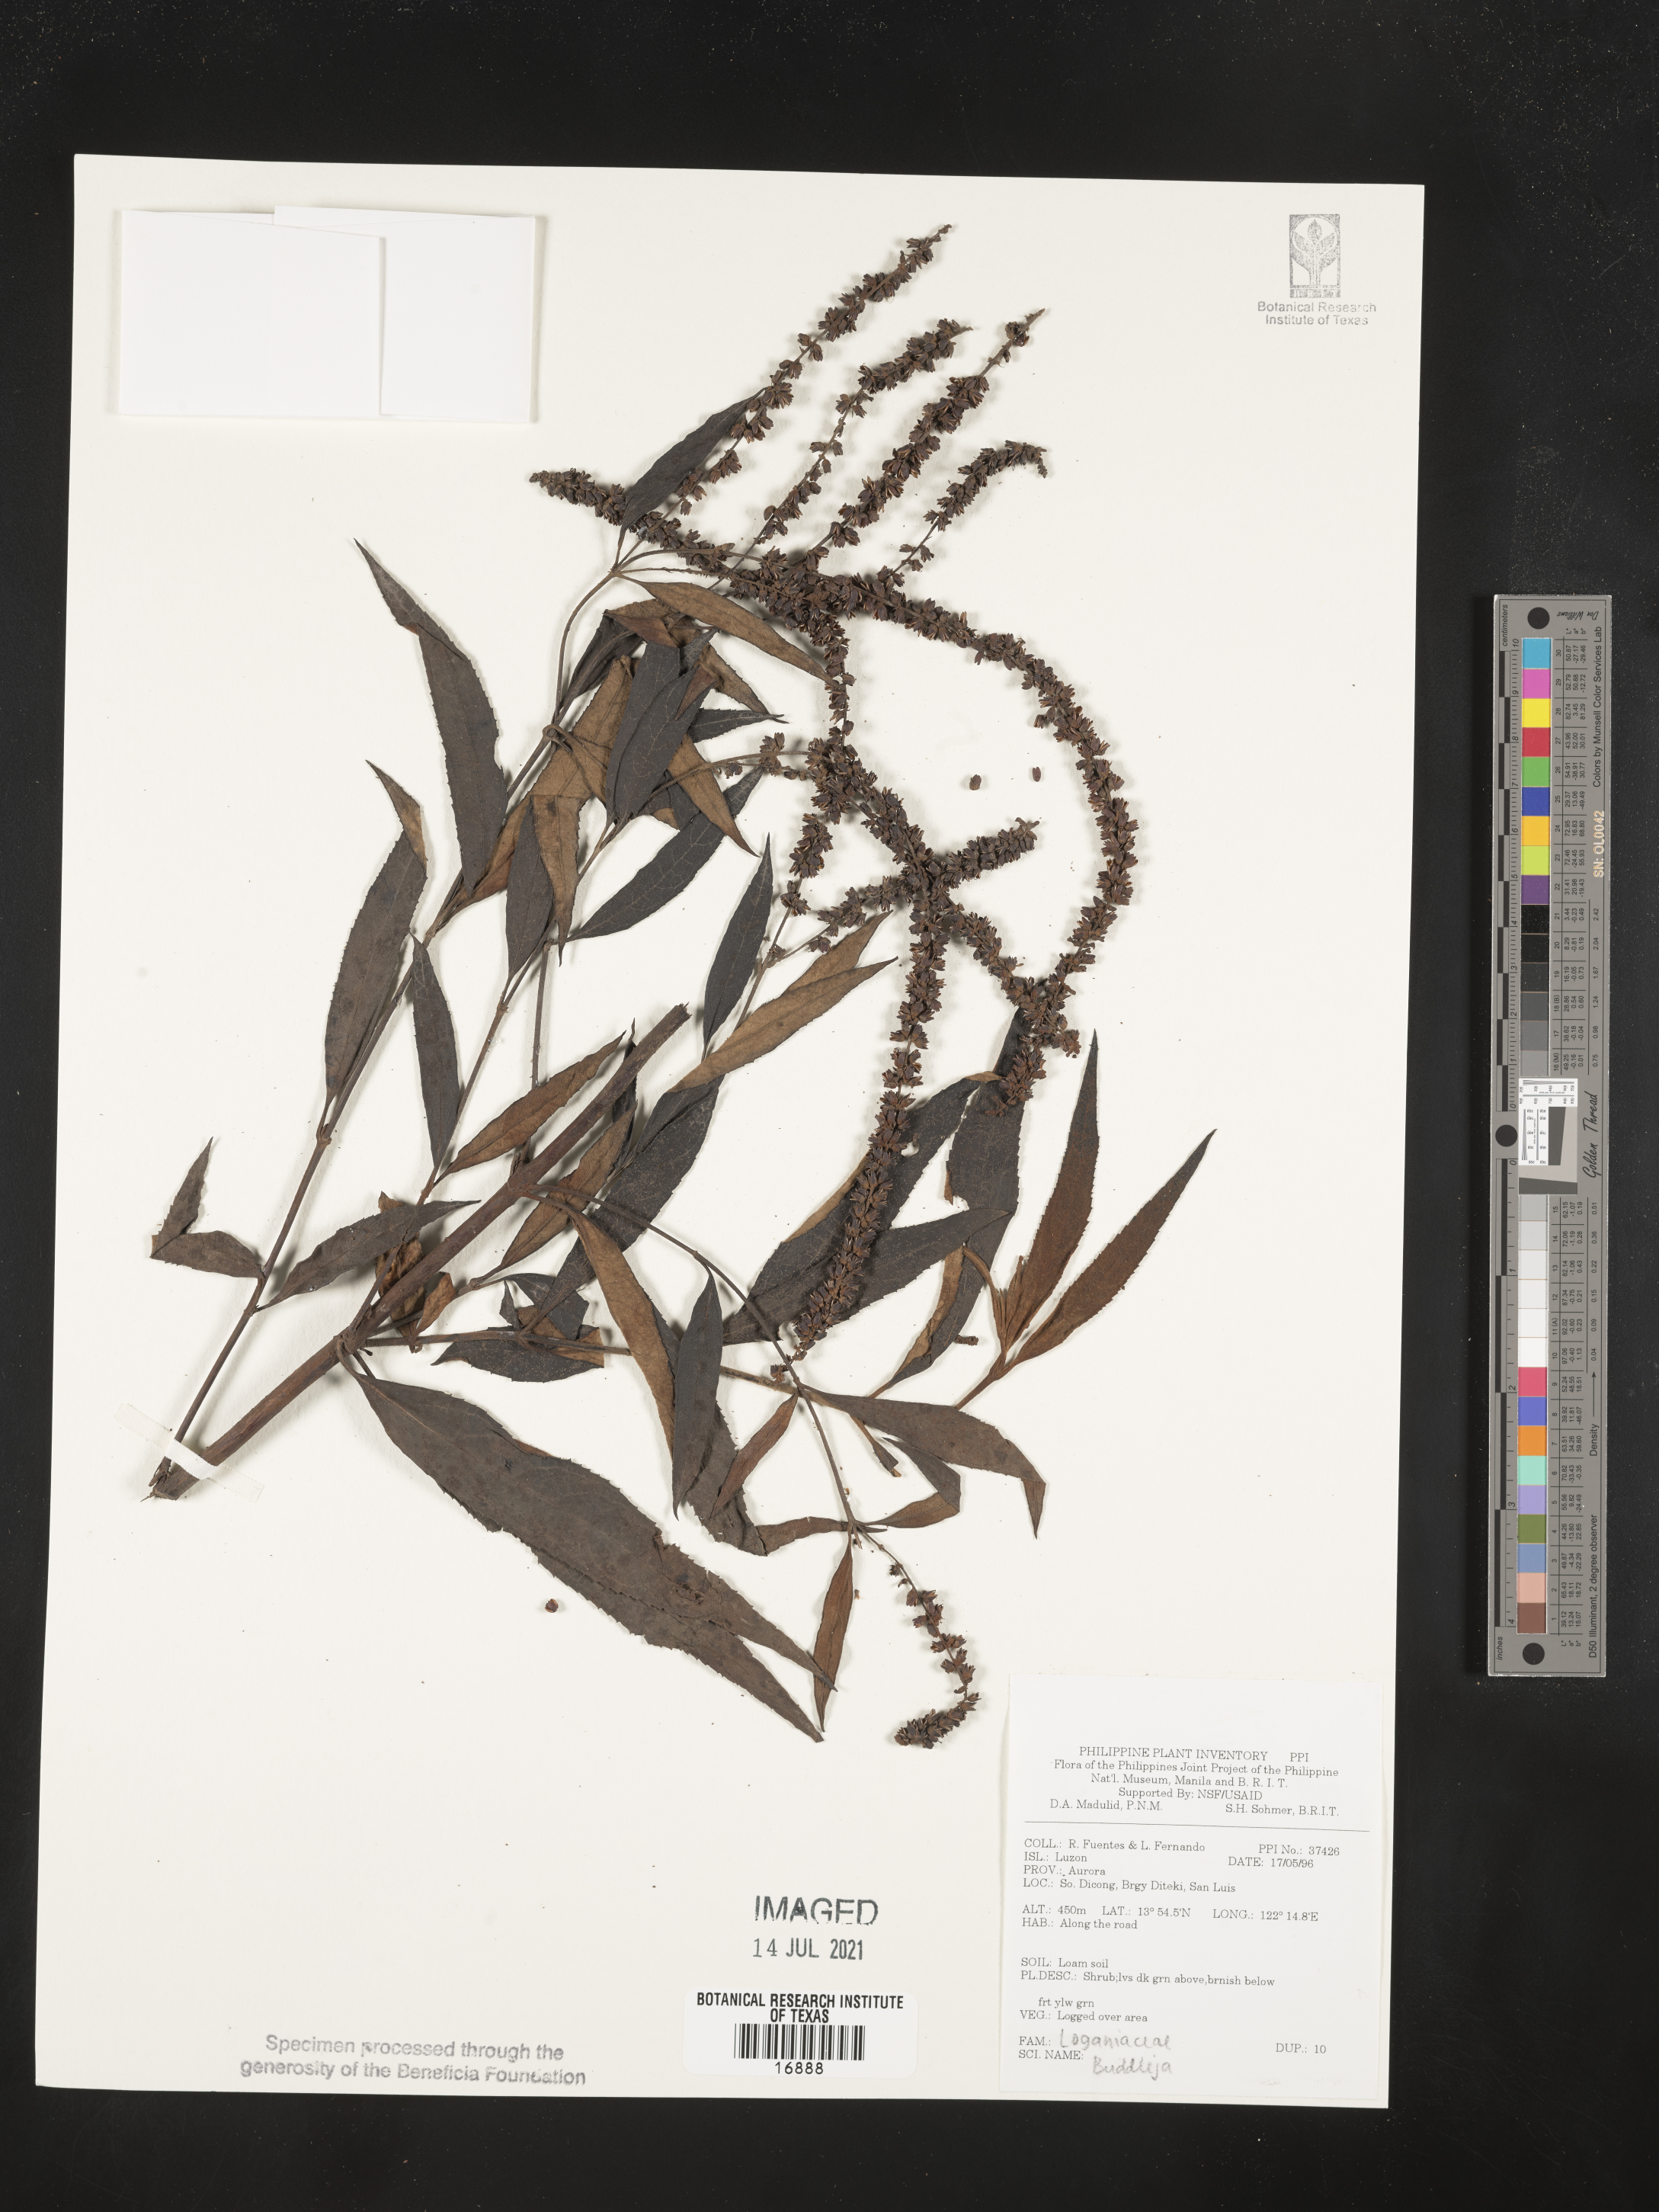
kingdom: Plantae
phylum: Tracheophyta
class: Magnoliopsida
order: Lamiales
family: Scrophulariaceae
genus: Buddleja
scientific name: Buddleja
